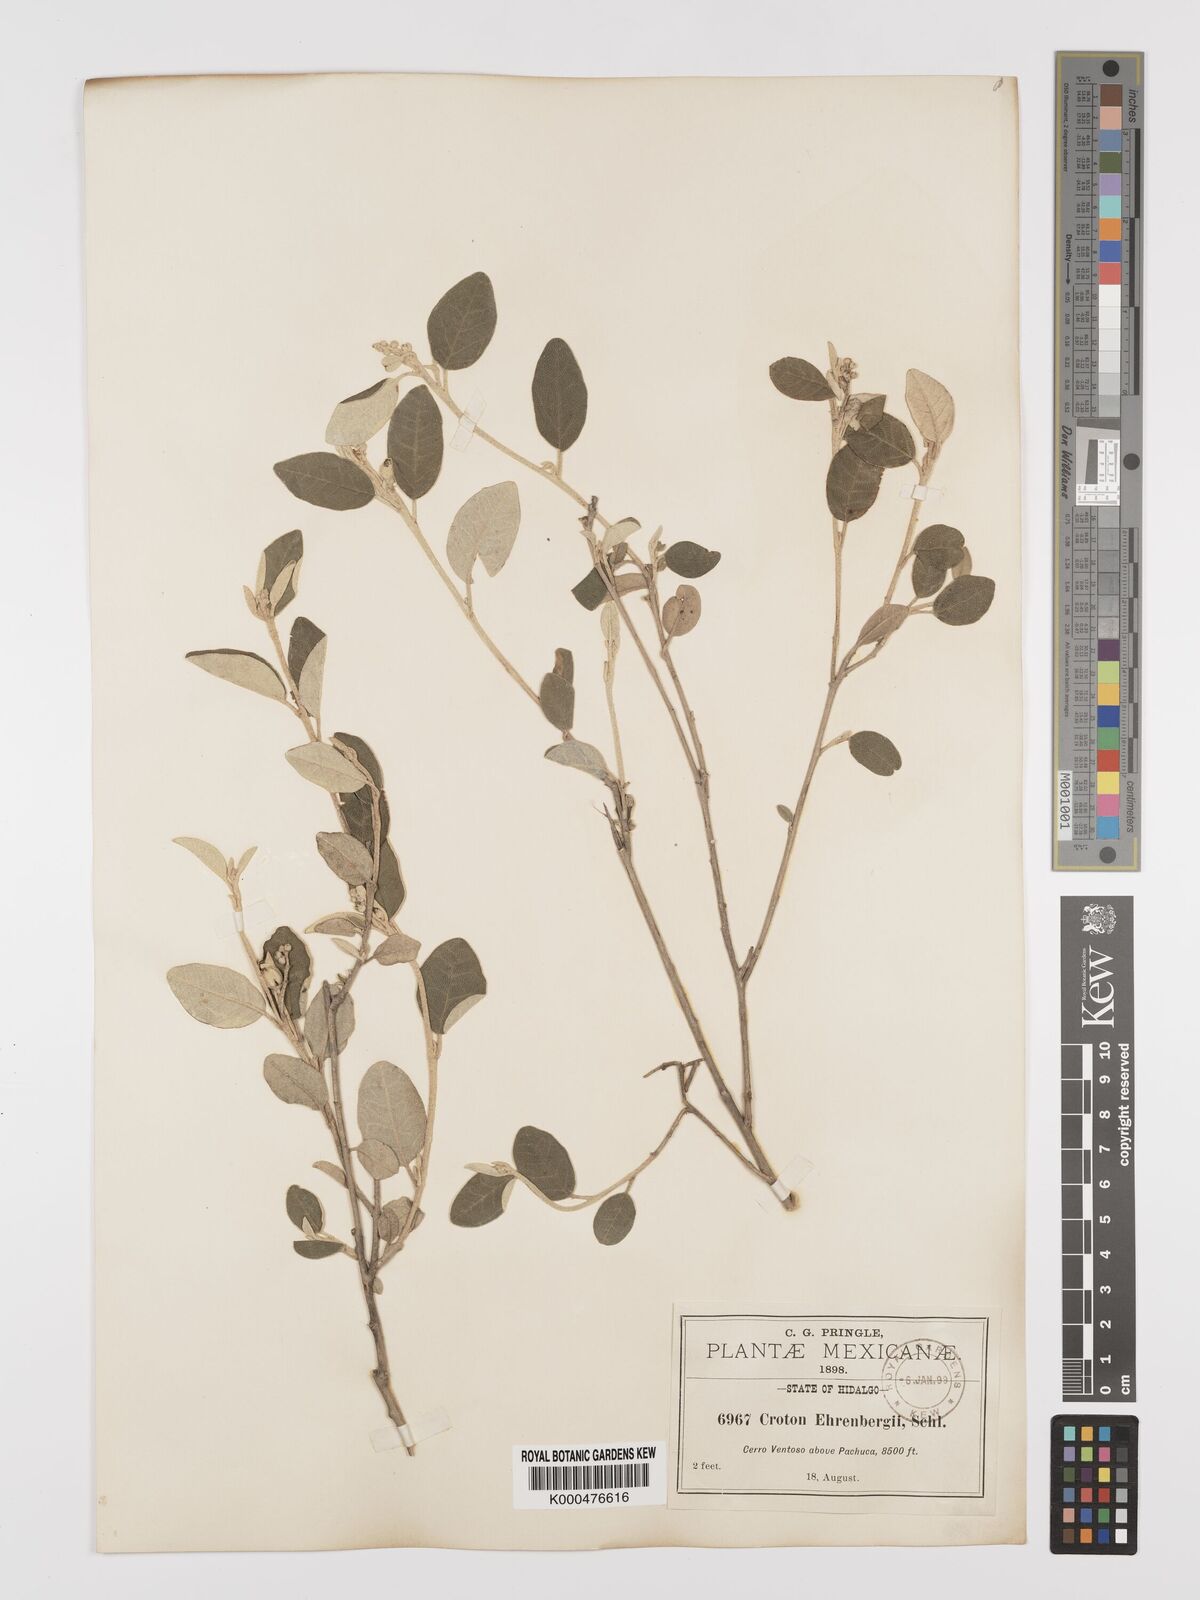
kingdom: Plantae
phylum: Tracheophyta
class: Magnoliopsida
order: Malpighiales
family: Euphorbiaceae
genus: Croton
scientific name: Croton ehrenbergii
